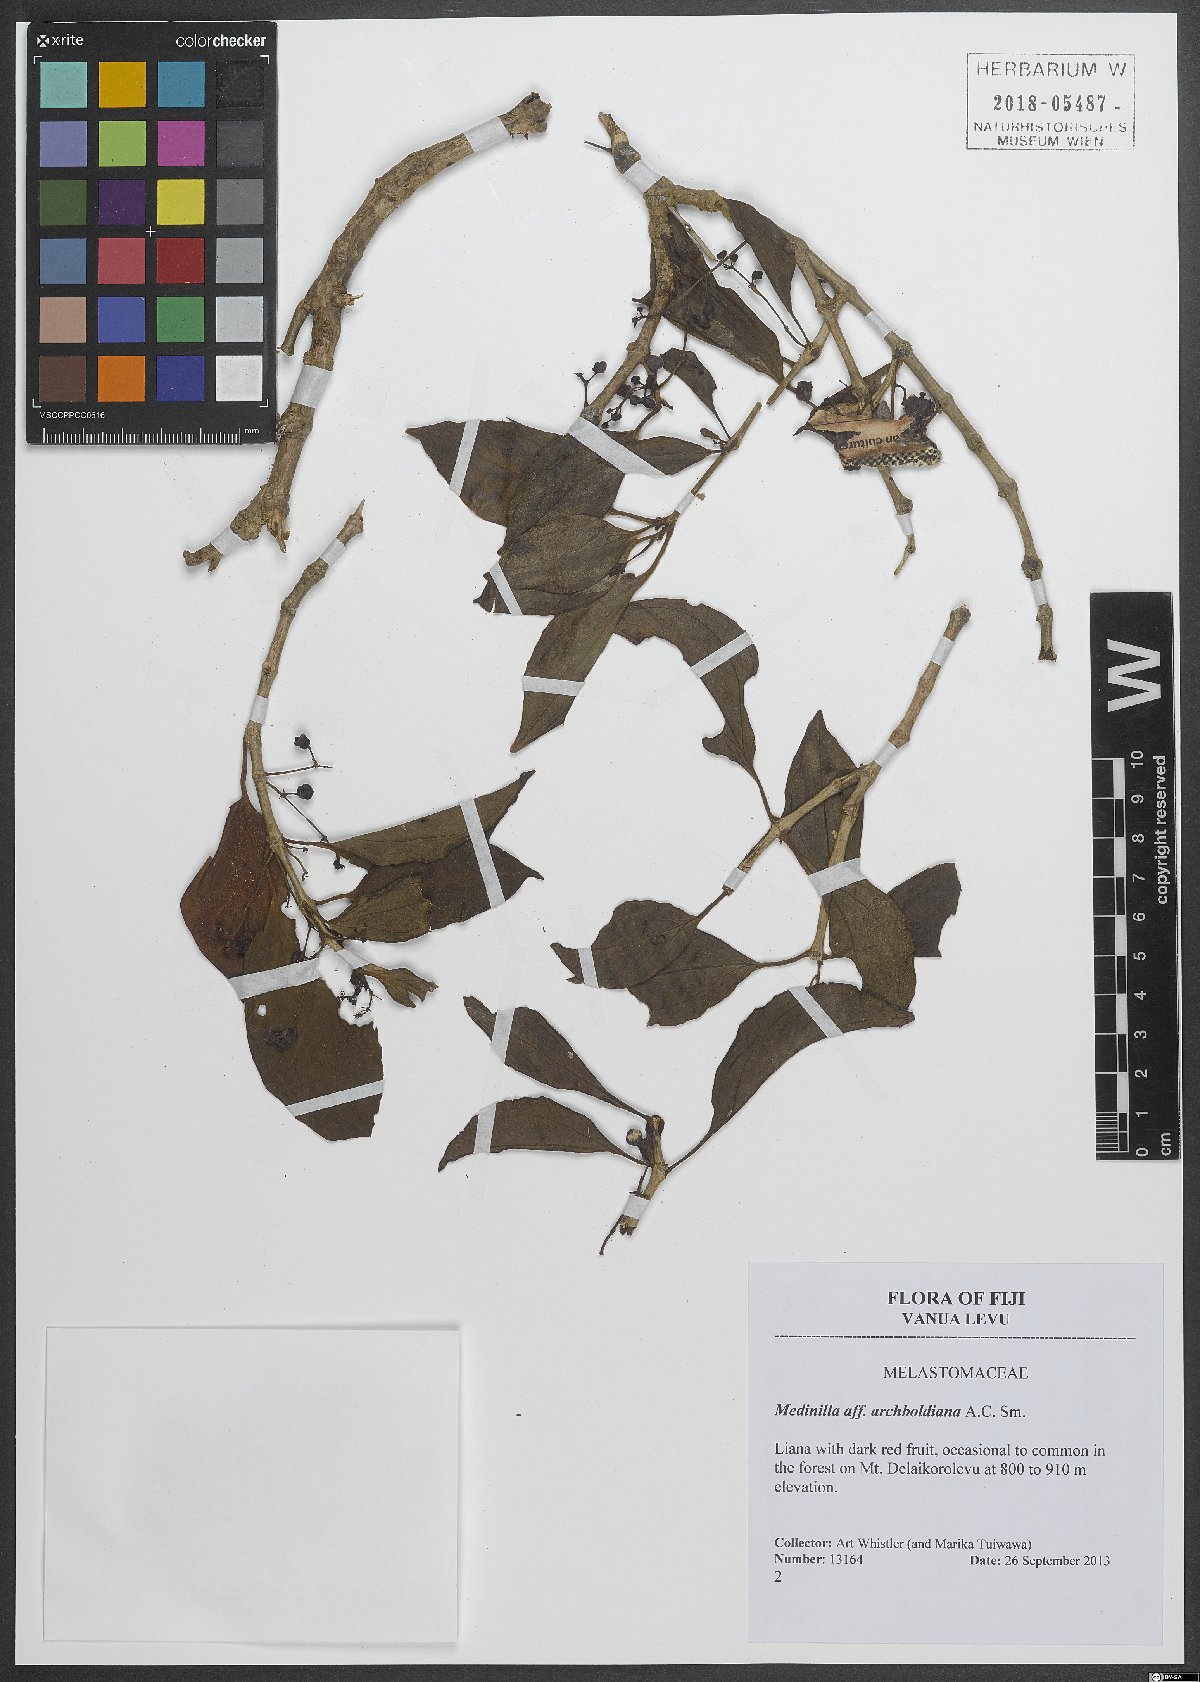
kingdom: Plantae
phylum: Tracheophyta
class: Magnoliopsida
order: Myrtales
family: Melastomataceae
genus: Medinilla
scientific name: Medinilla archboldiana
